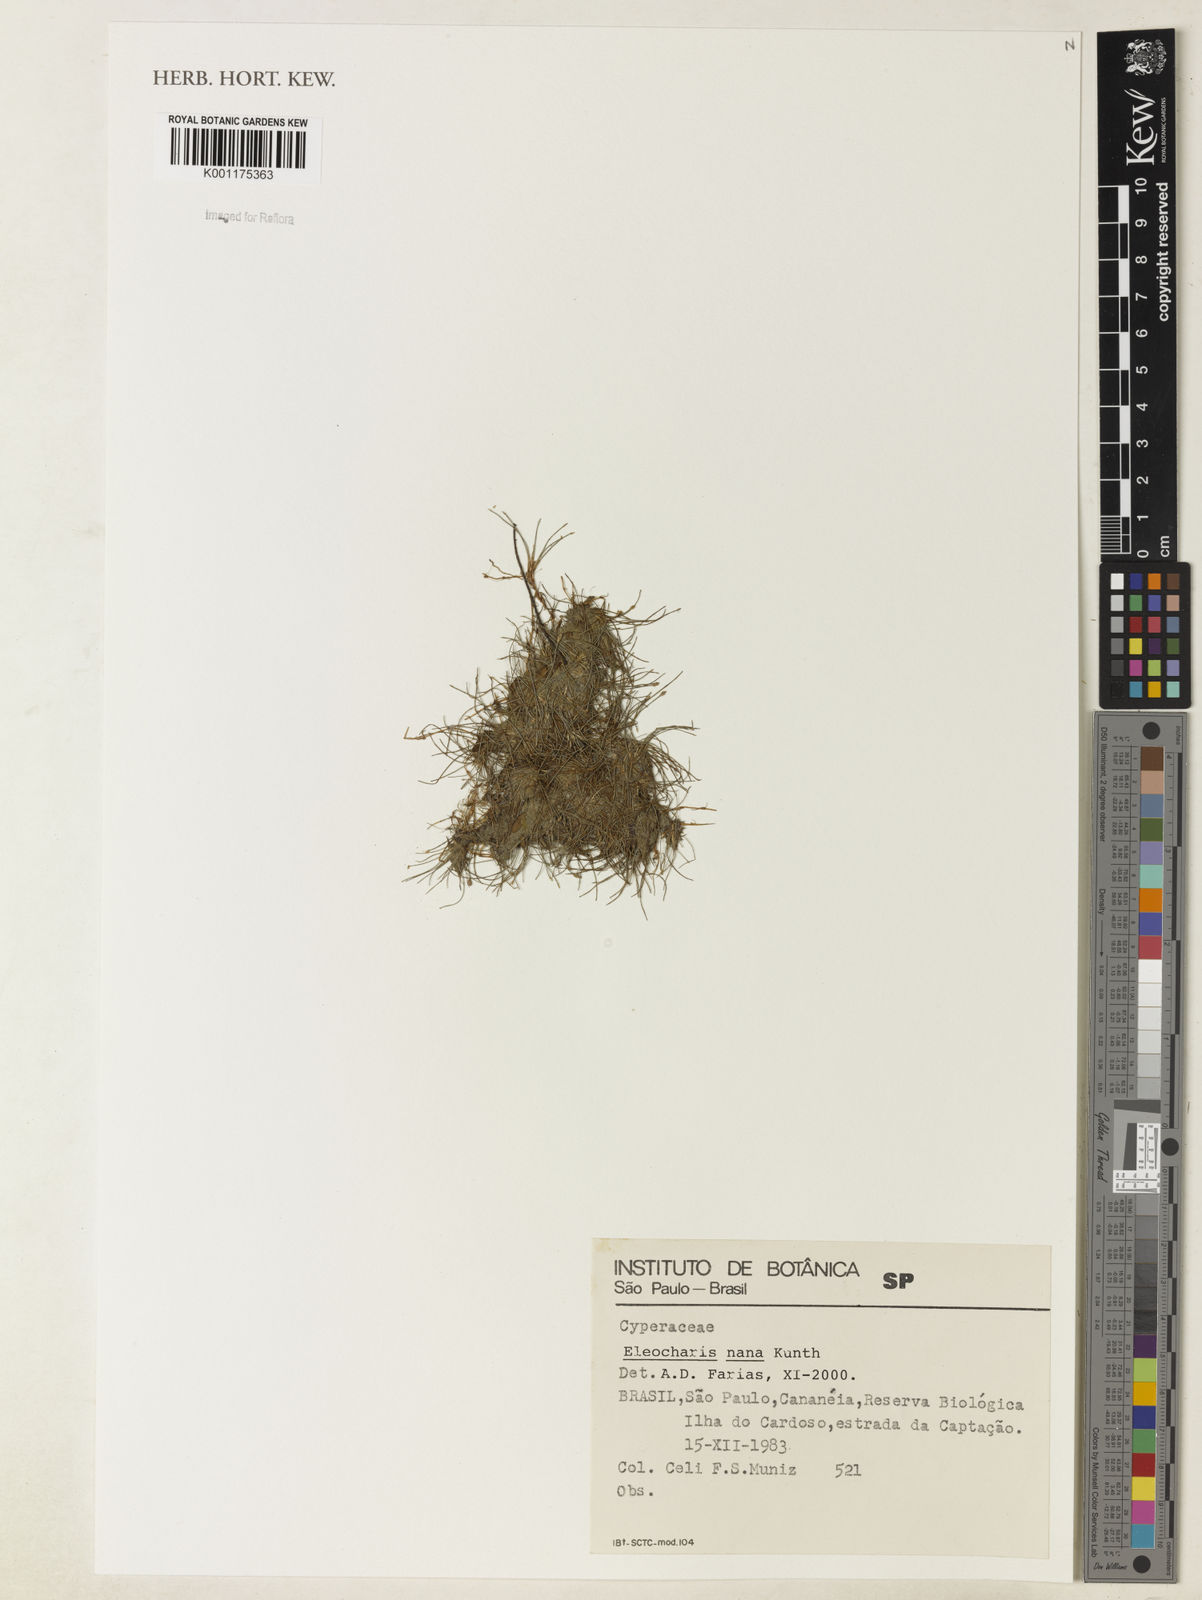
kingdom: Plantae
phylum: Tracheophyta
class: Liliopsida
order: Poales
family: Cyperaceae
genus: Eleocharis
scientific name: Eleocharis nana
